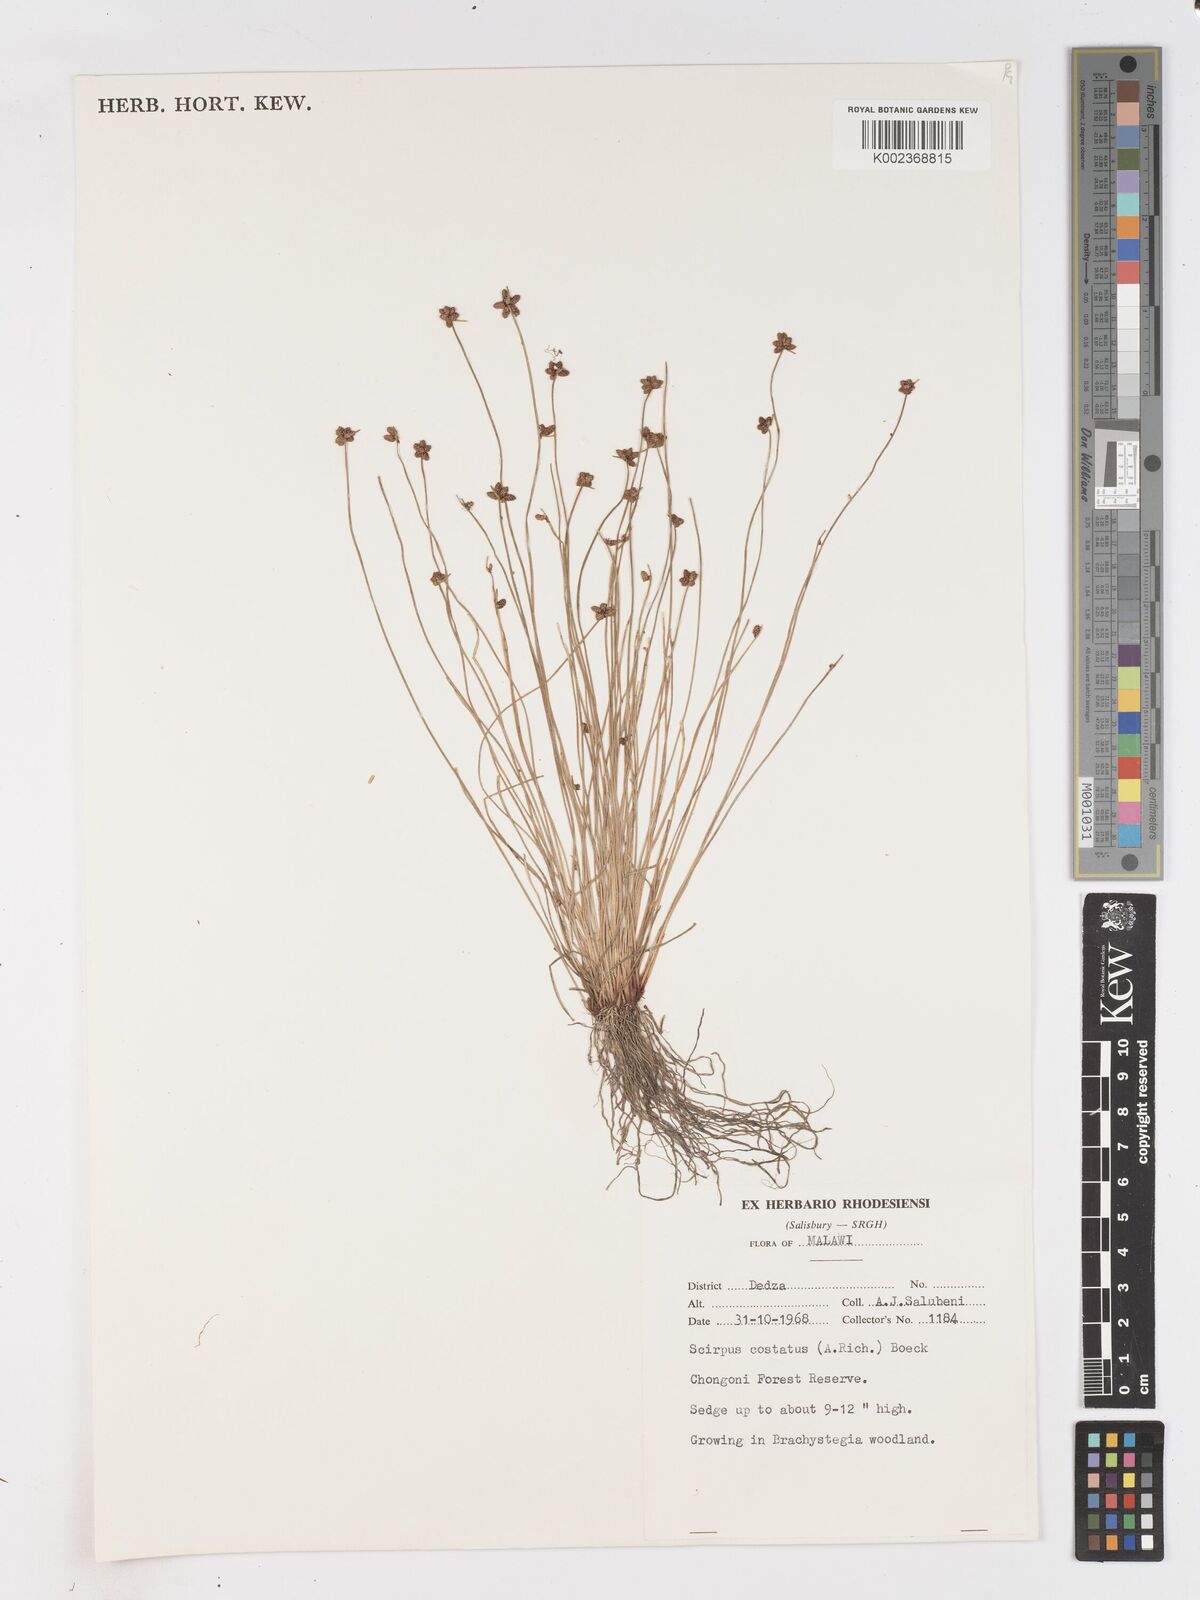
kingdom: Plantae
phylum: Tracheophyta
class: Liliopsida
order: Poales
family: Cyperaceae
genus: Isolepis
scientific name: Isolepis costata
